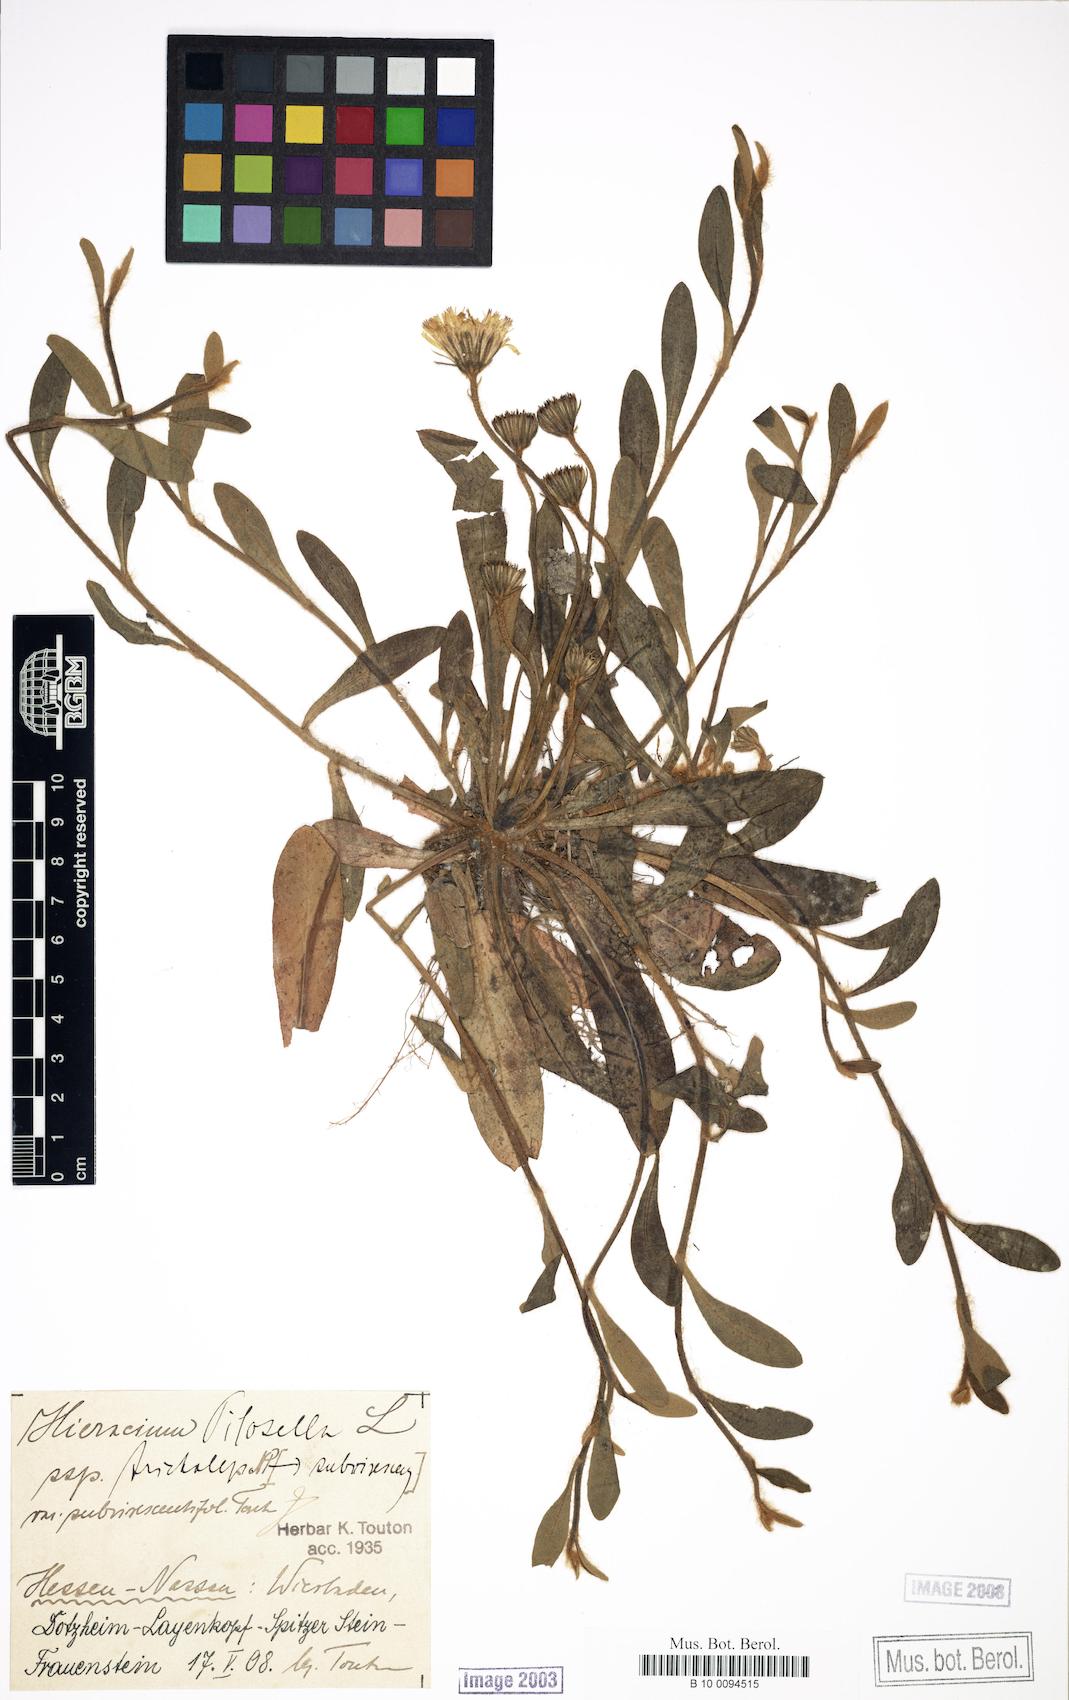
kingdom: Plantae
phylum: Tracheophyta
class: Magnoliopsida
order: Asterales
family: Asteraceae
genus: Pilosella
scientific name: Pilosella officinarum
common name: Mouse-ear hawkweed
